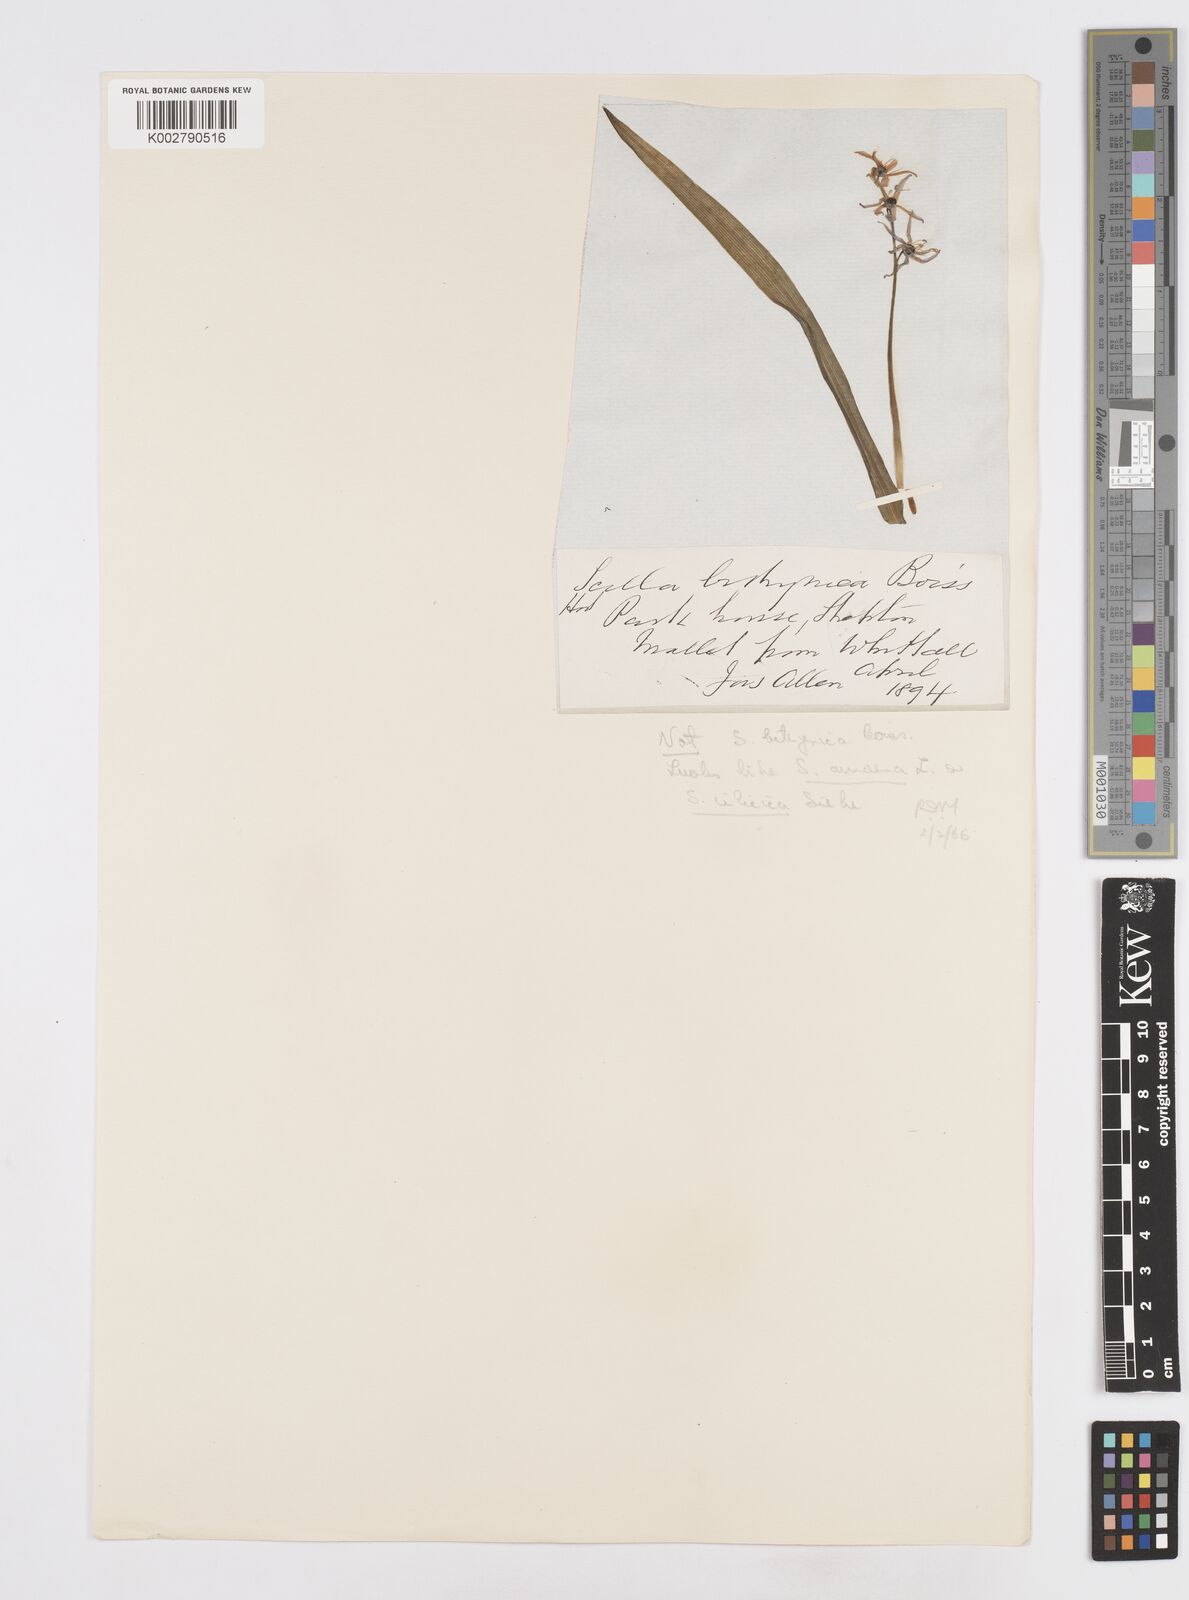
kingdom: Plantae
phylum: Tracheophyta
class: Liliopsida
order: Asparagales
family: Asparagaceae
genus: Scilla
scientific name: Scilla bithynica
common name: Turkish squill
